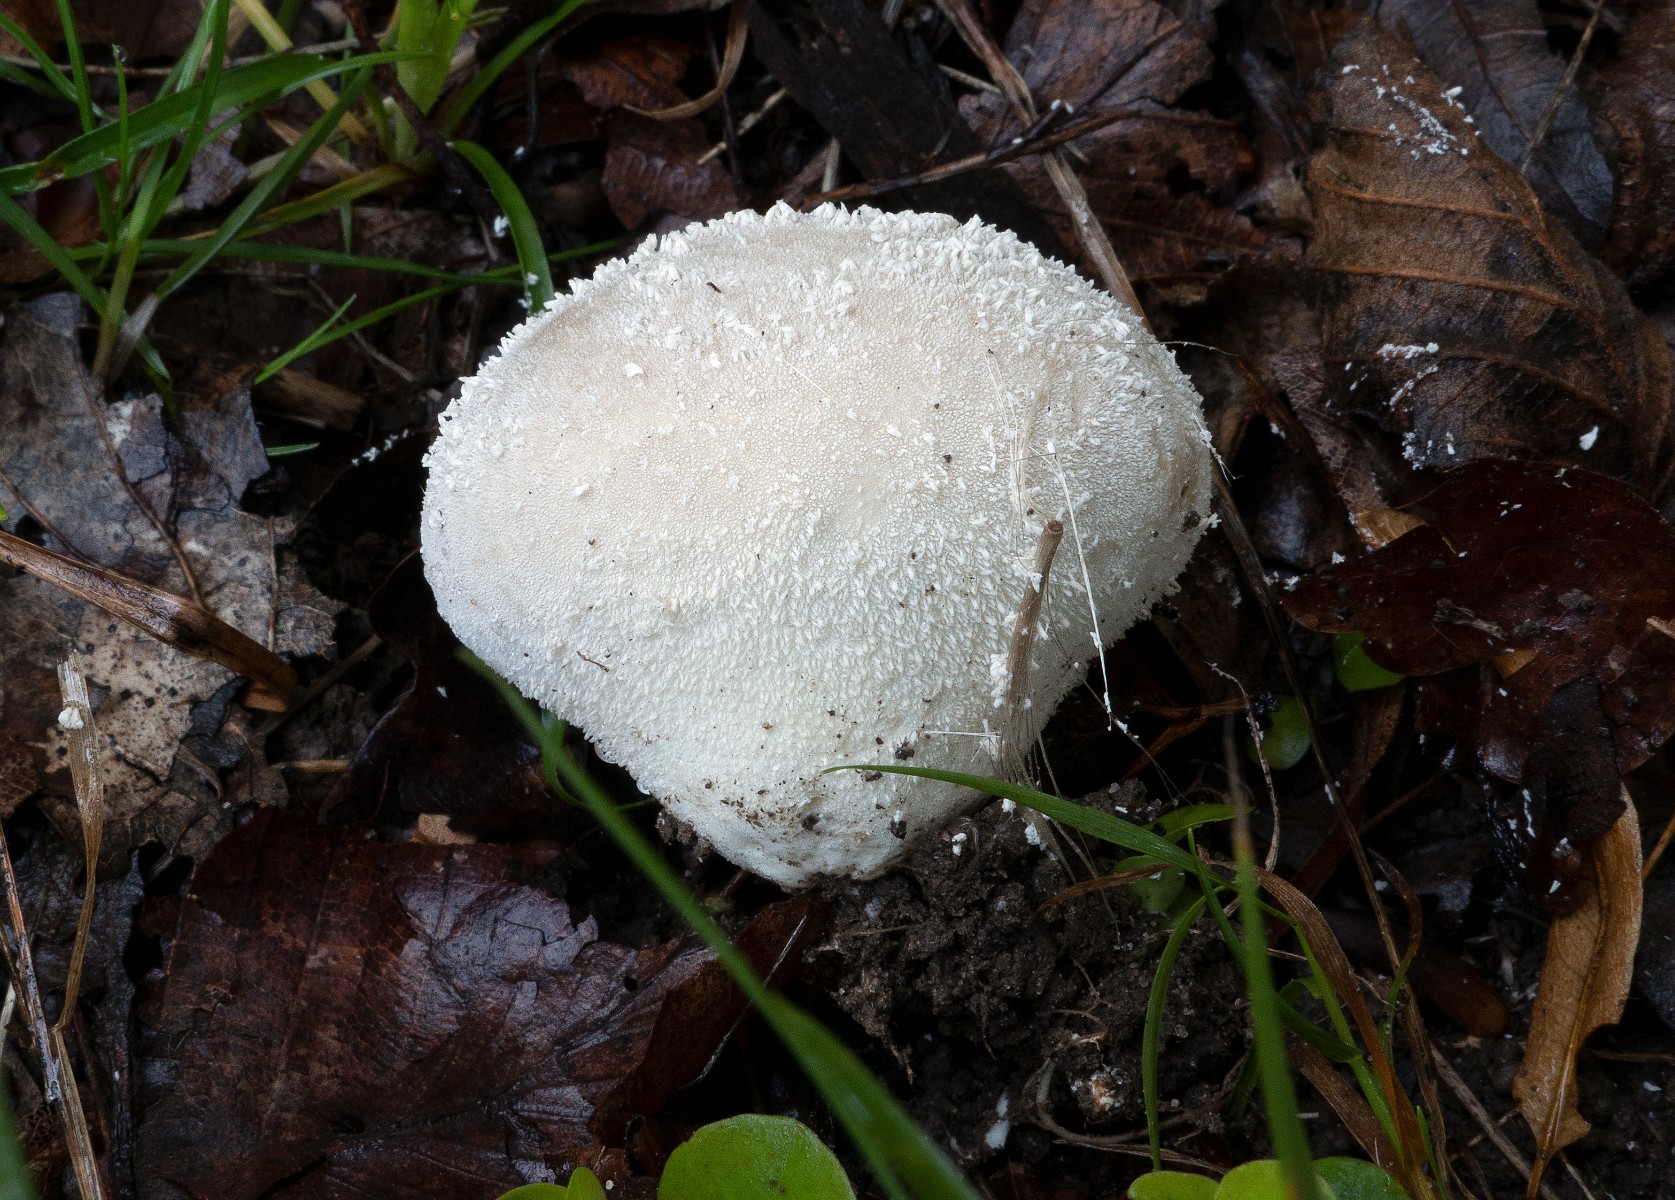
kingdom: Fungi
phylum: Basidiomycota
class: Agaricomycetes
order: Agaricales
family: Lycoperdaceae
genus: Lycoperdon
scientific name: Lycoperdon decipiens
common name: rod-støvbold
